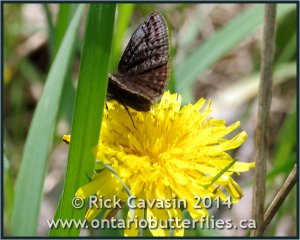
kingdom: Animalia
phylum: Arthropoda
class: Insecta
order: Lepidoptera
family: Hesperiidae
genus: Erynnis
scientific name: Erynnis icelus
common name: Dreamy Duskywing
